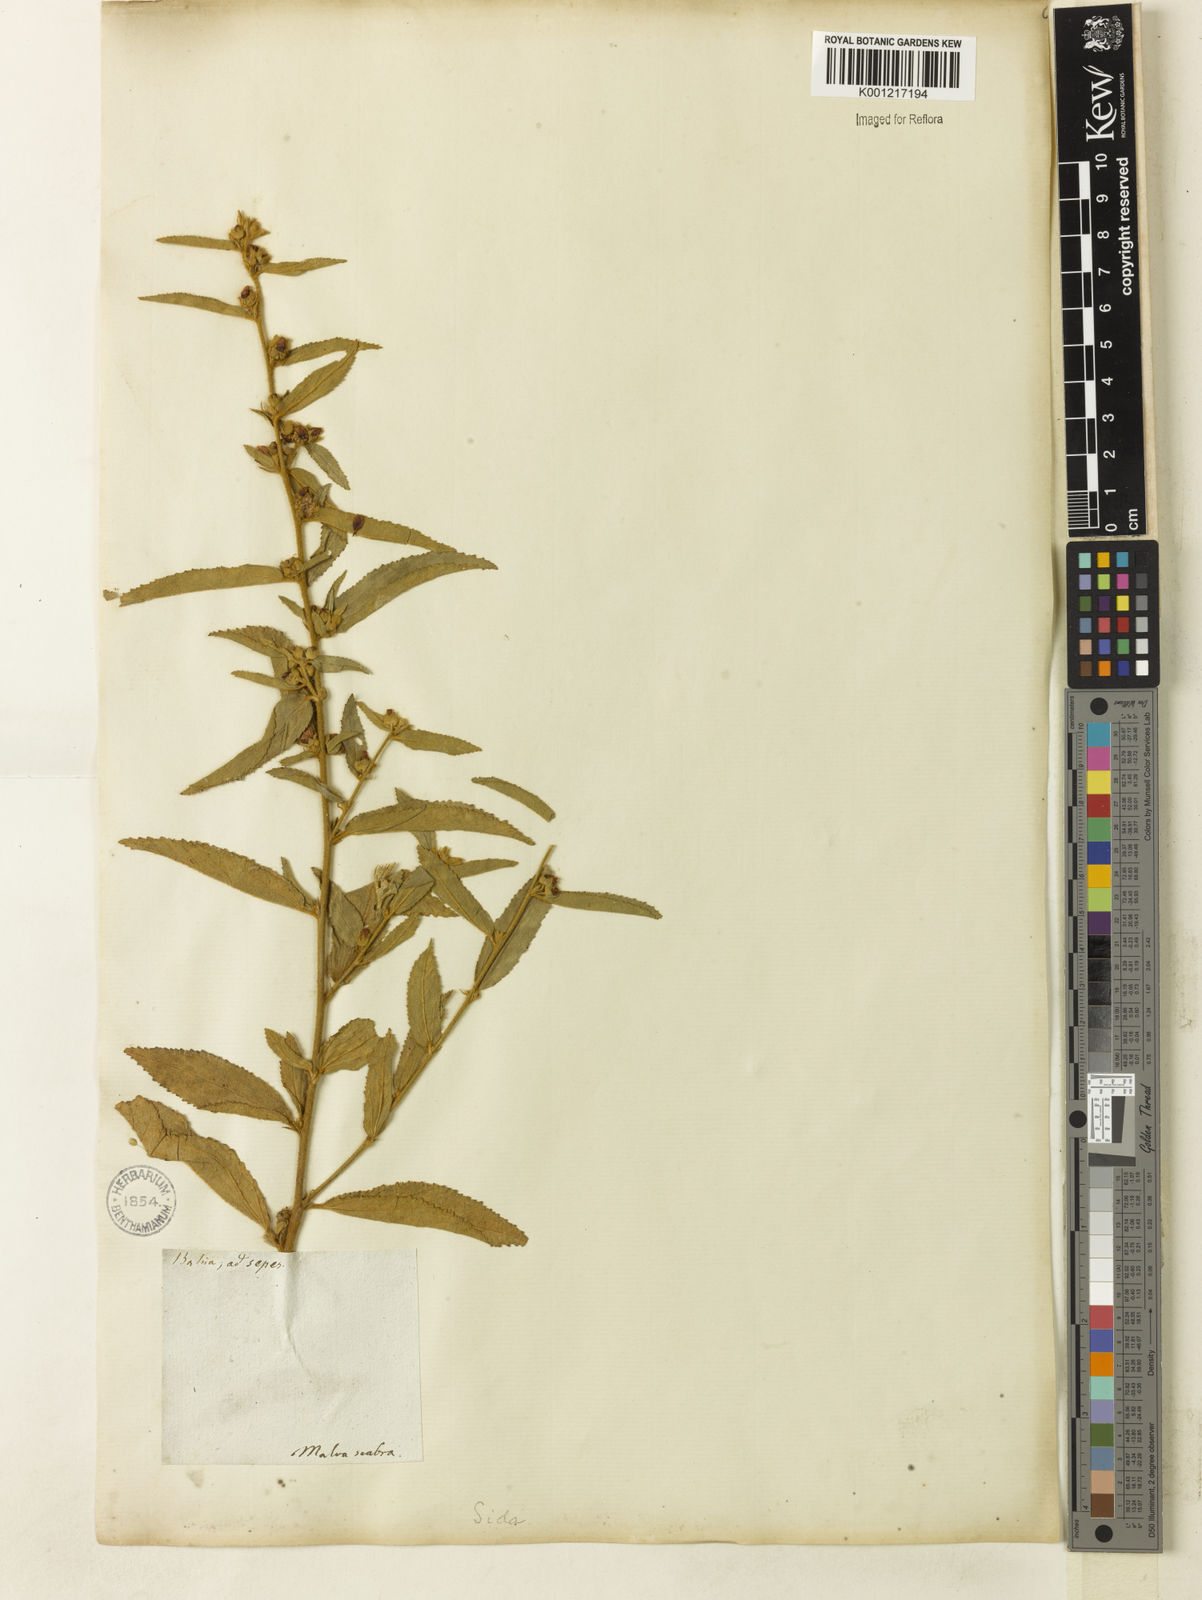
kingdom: Plantae
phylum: Tracheophyta
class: Magnoliopsida
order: Malvales
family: Malvaceae
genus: Sidastrum
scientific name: Sidastrum multiflorum
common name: Manyflower sandmallow
